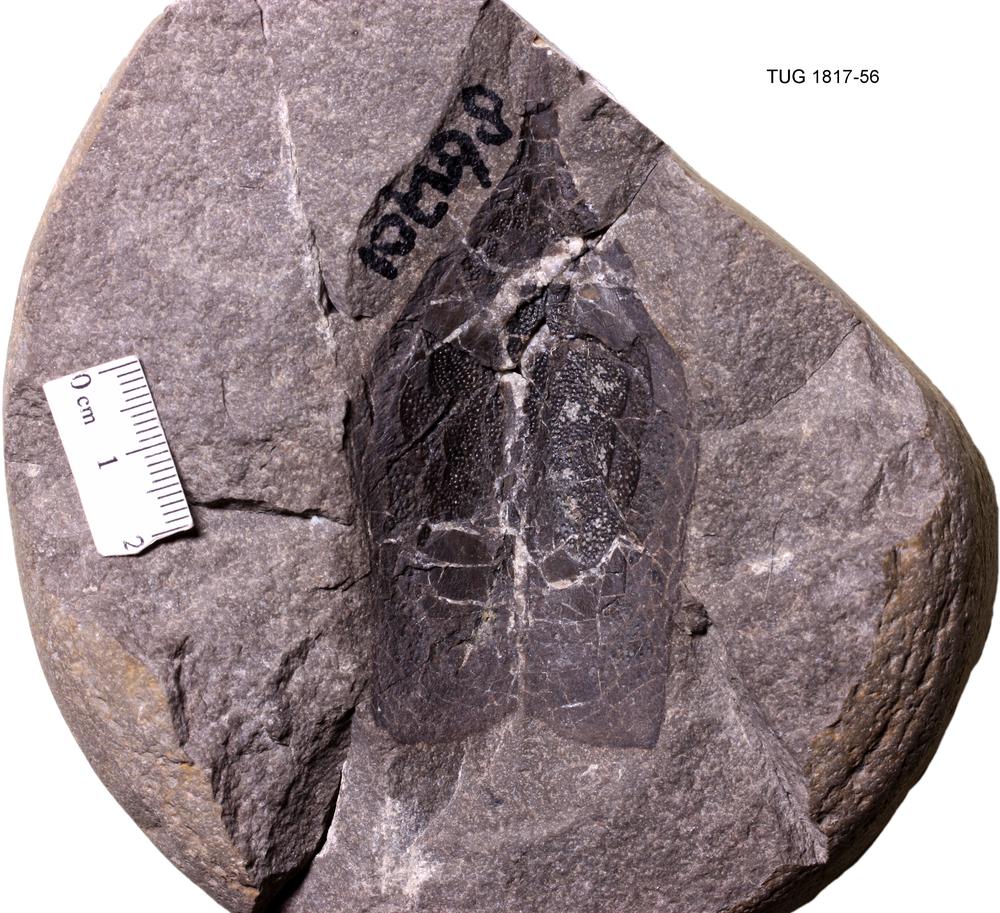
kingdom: Animalia
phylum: Chordata
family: Coccosteidae
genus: Coccosteus
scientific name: Coccosteus cuspidatus
